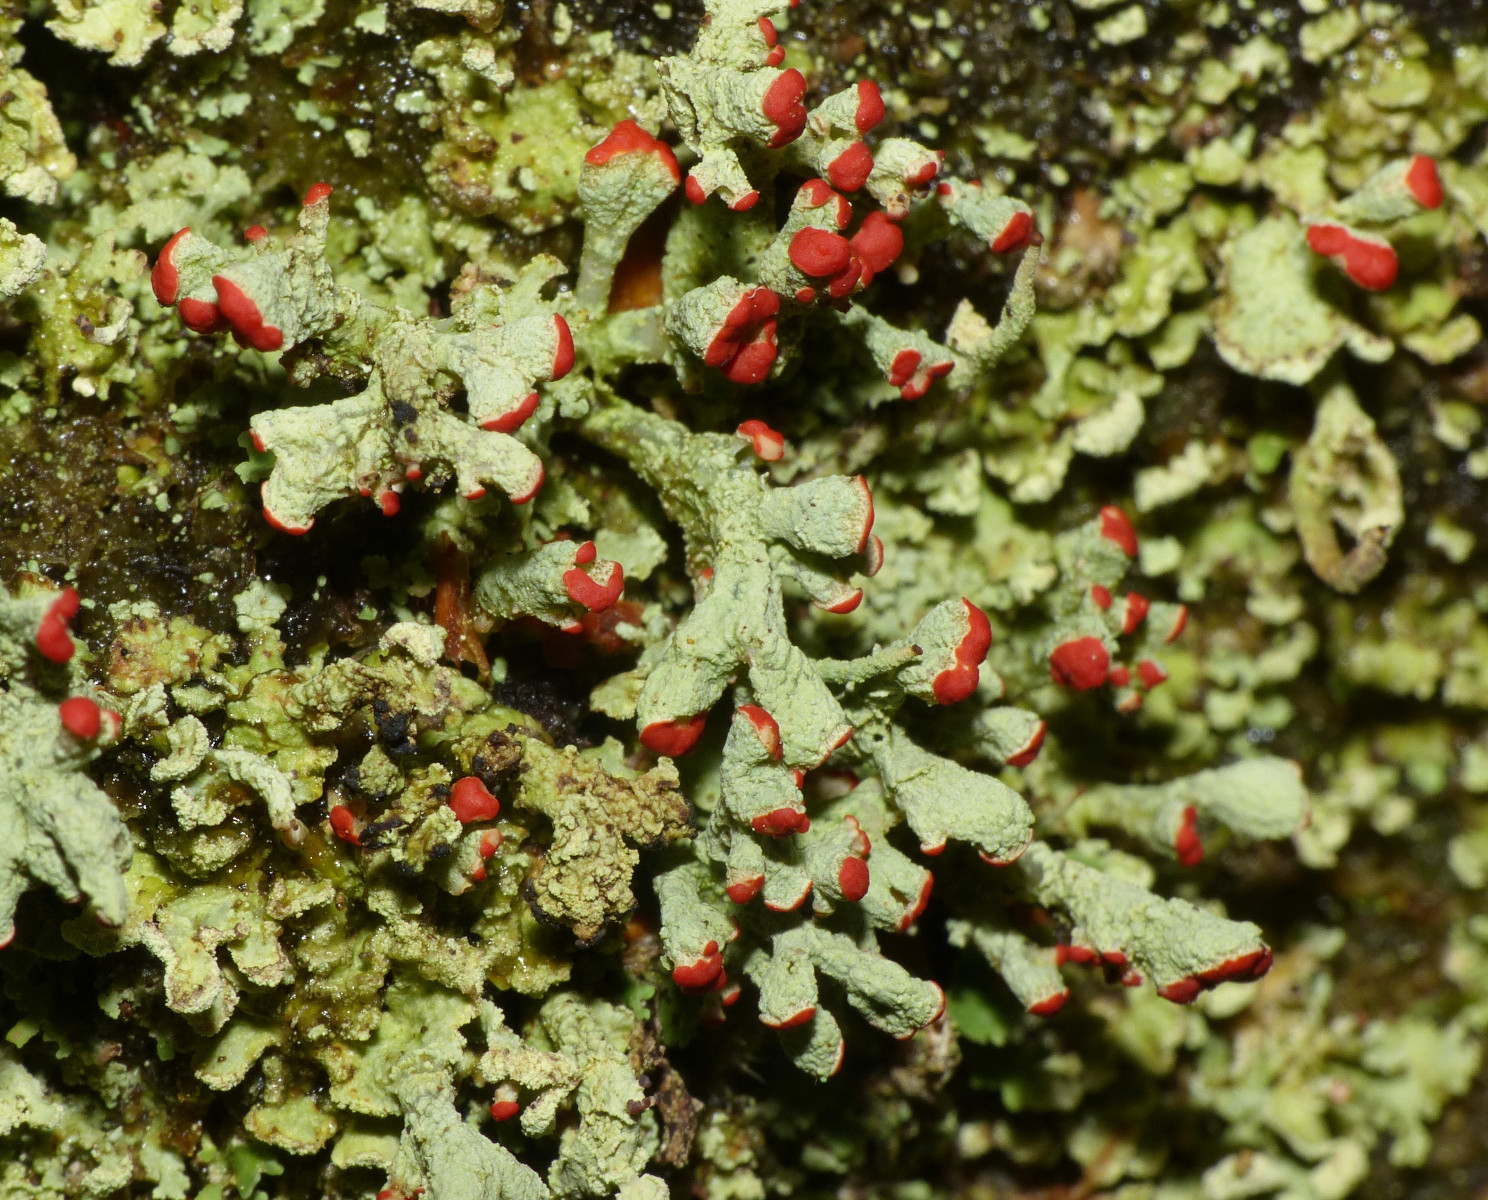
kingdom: Fungi
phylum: Ascomycota
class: Lecanoromycetes
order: Lecanorales
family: Cladoniaceae
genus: Cladonia
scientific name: Cladonia incrassata
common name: tørve-bægerlav
